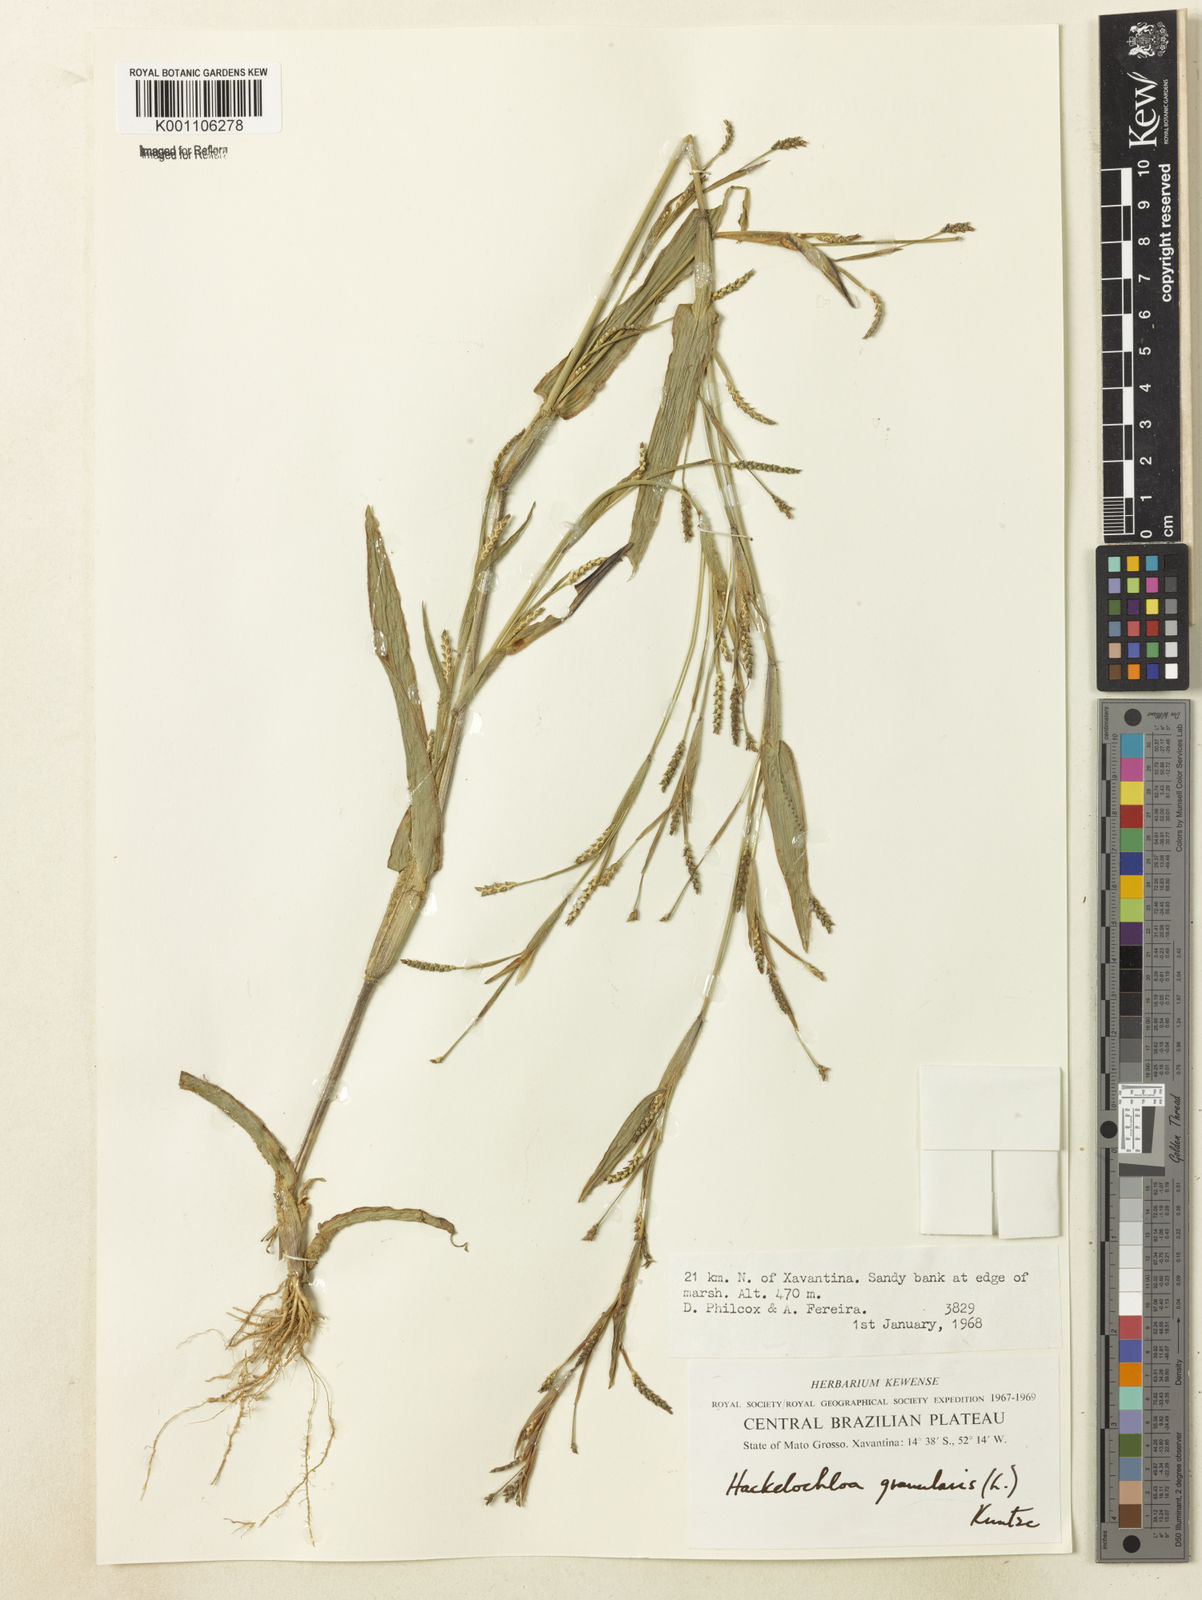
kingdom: Plantae
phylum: Tracheophyta
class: Liliopsida
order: Poales
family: Poaceae
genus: Hackelochloa
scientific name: Hackelochloa granularis
